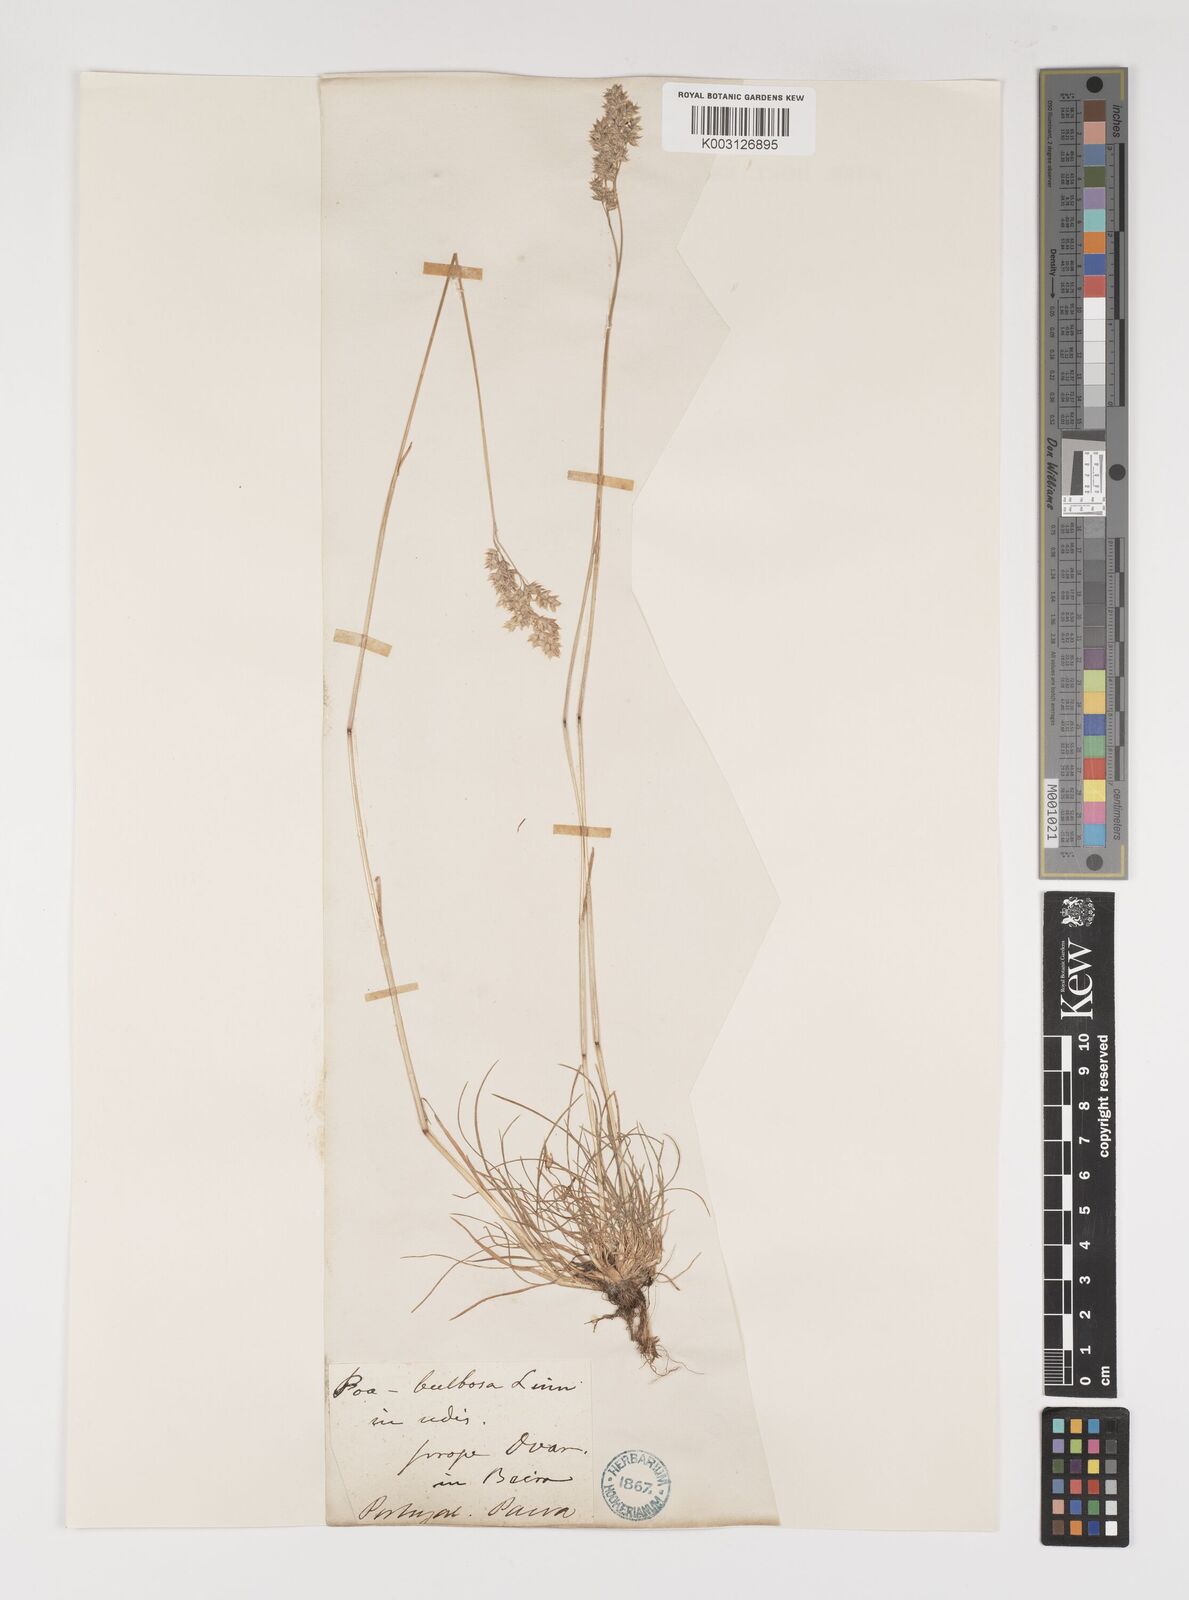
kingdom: Plantae
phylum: Tracheophyta
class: Liliopsida
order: Poales
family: Poaceae
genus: Poa
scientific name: Poa bulbosa
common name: Bulbous bluegrass
